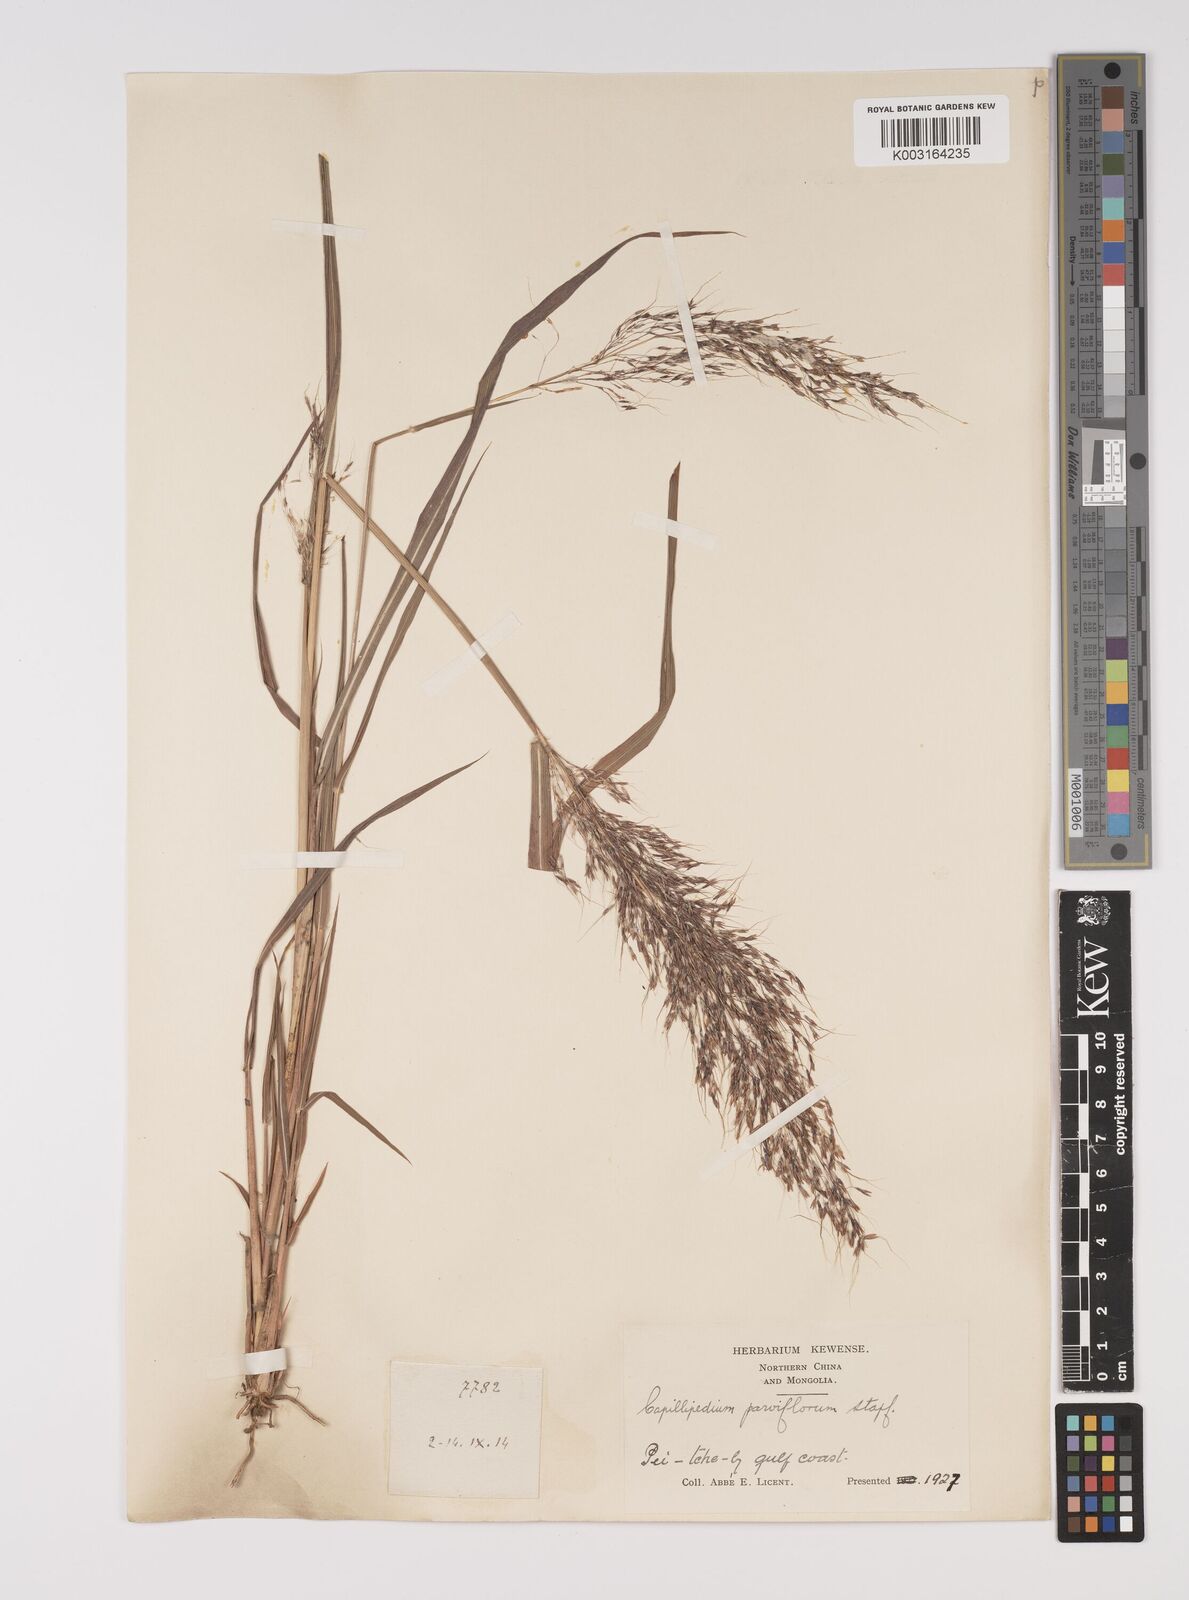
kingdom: Plantae
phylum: Tracheophyta
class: Liliopsida
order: Poales
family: Poaceae
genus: Capillipedium
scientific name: Capillipedium parviflorum
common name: Golden-beard
